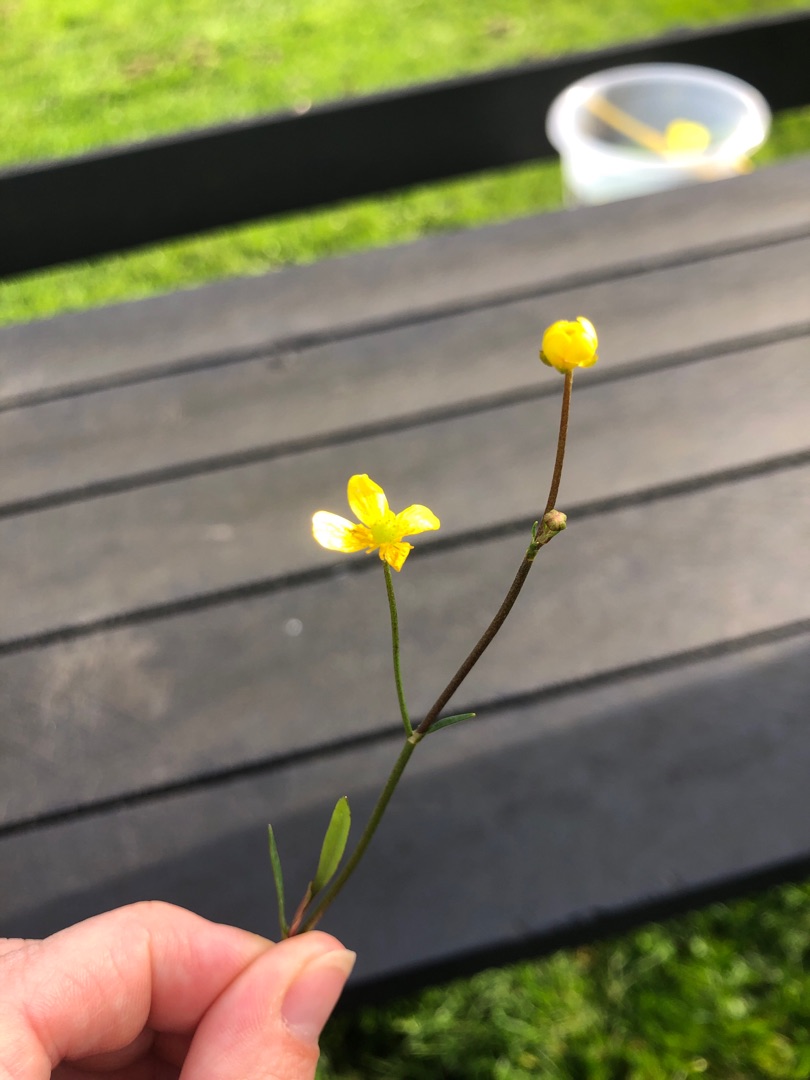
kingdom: Plantae
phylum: Tracheophyta
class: Magnoliopsida
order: Ranunculales
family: Ranunculaceae
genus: Ranunculus
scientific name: Ranunculus flammula
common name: Kær-ranunkel
